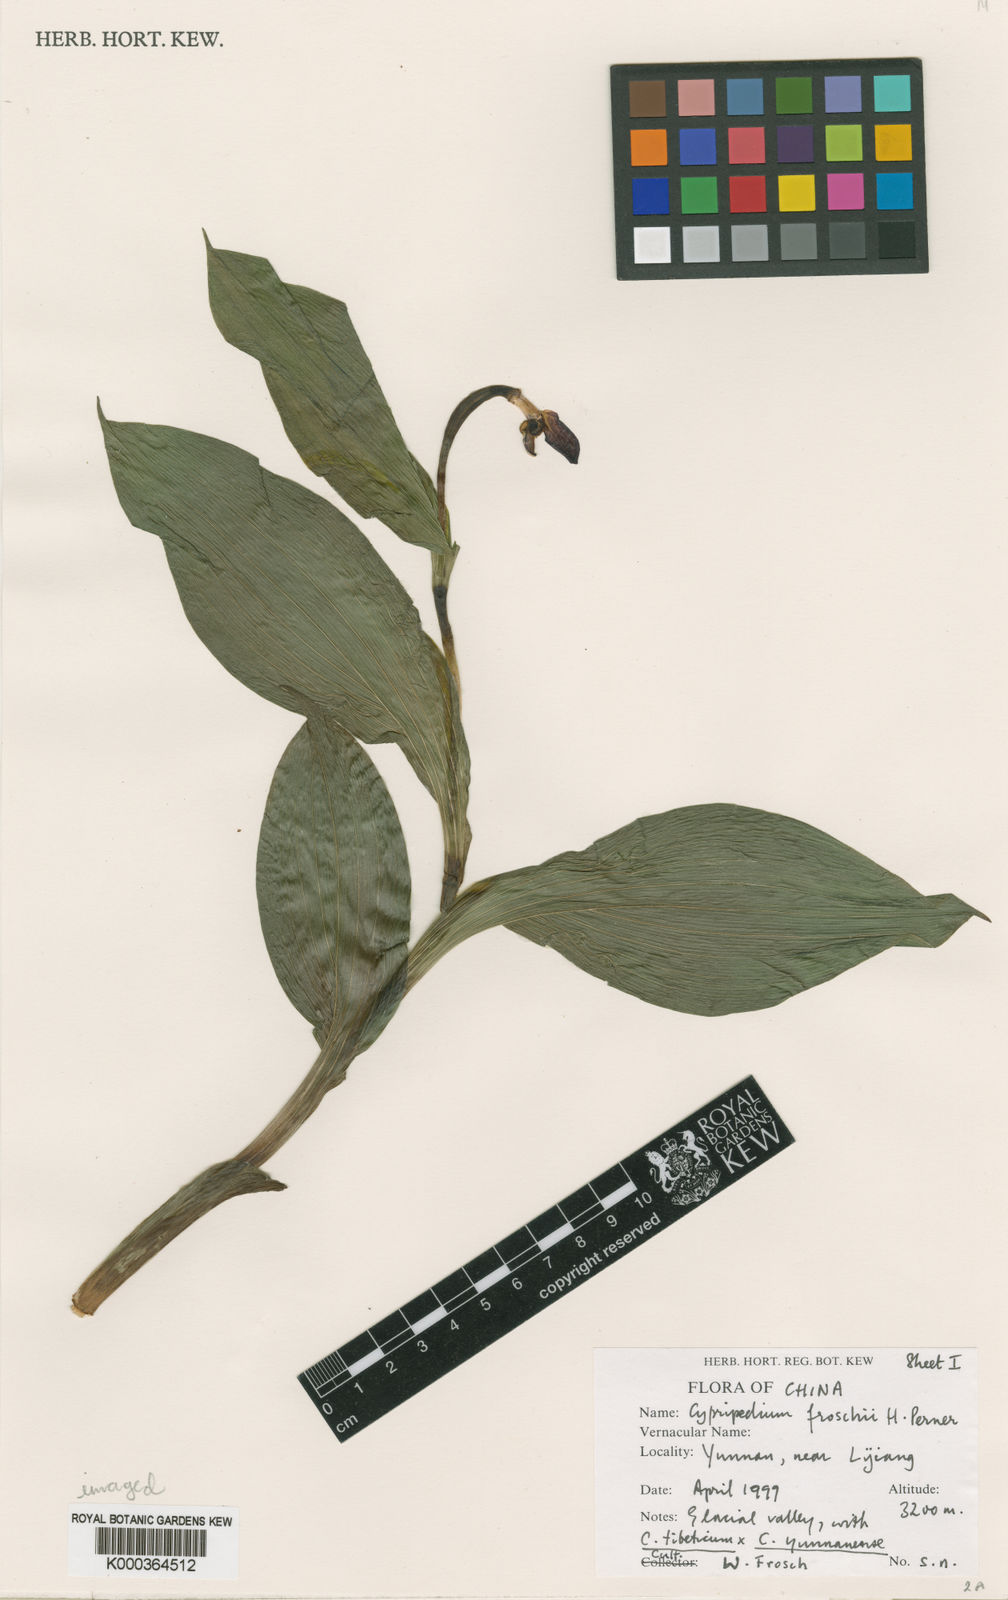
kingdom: Plantae
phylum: Tracheophyta
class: Liliopsida
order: Asparagales
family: Orchidaceae
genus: Cypripedium
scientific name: Cypripedium tibeticum
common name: Tibetan cypripedium
